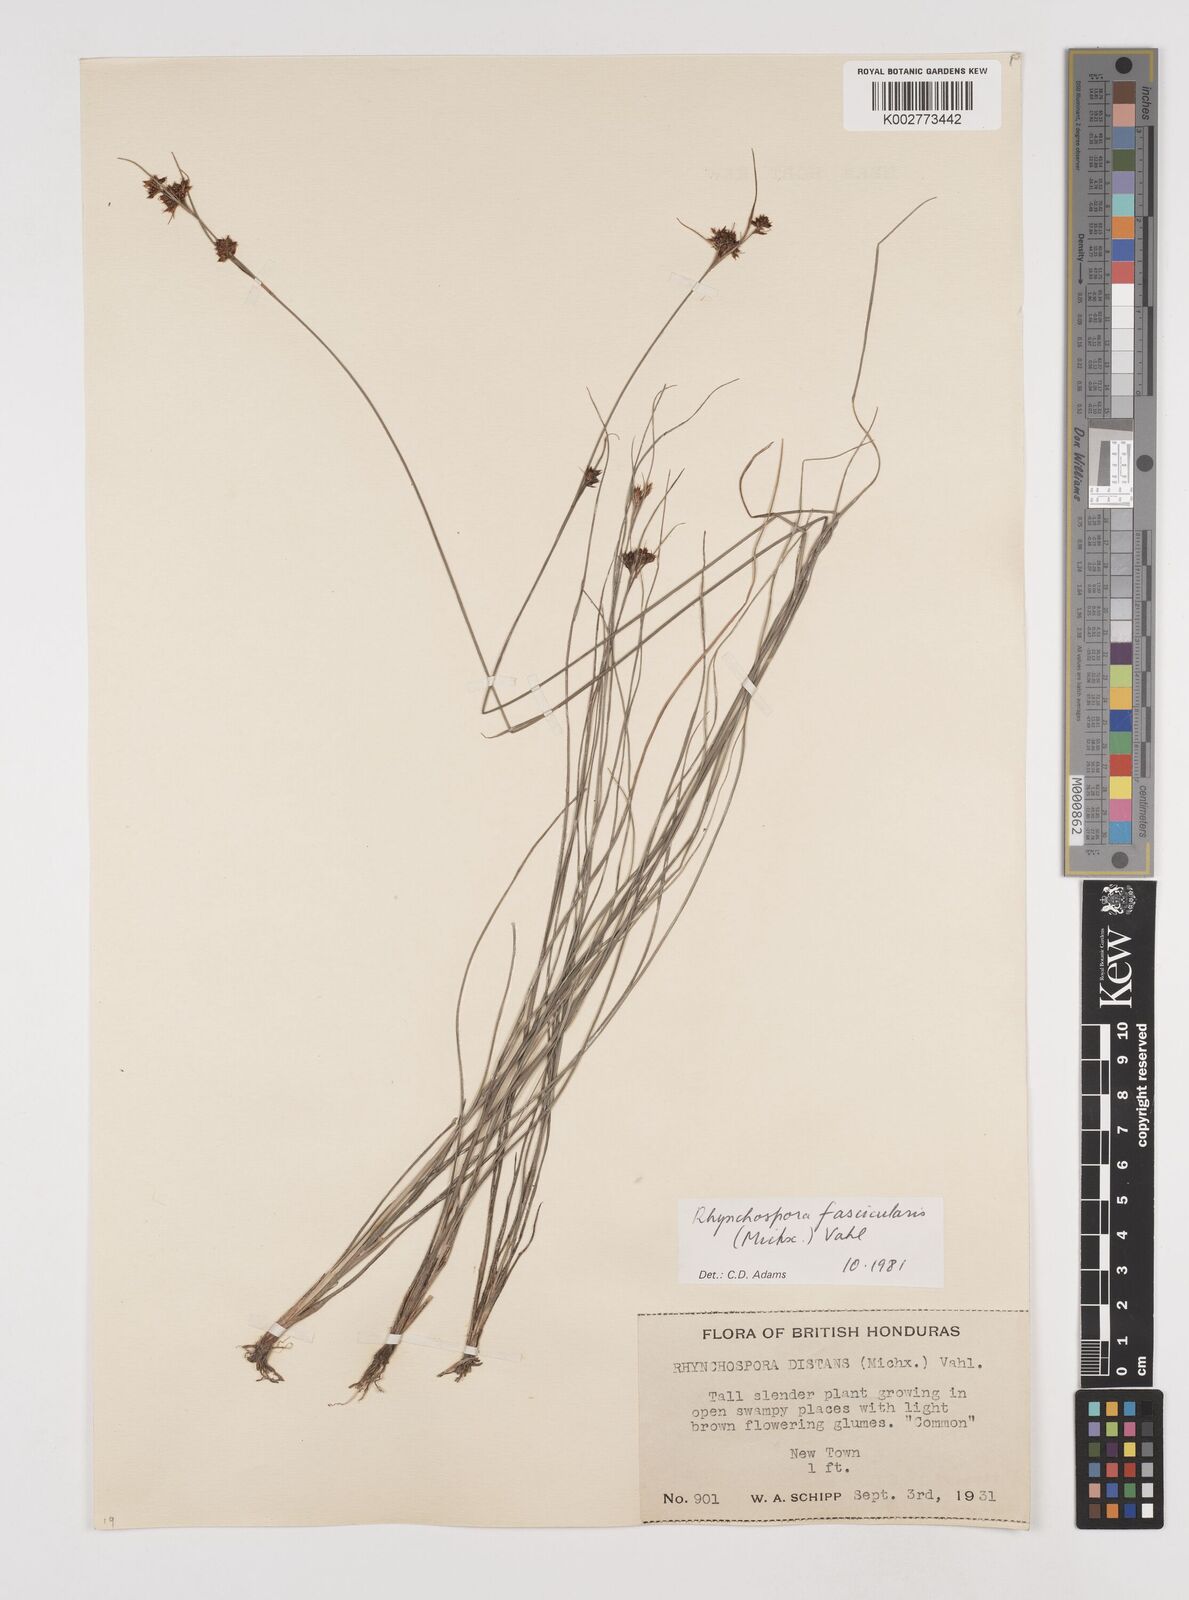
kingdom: Plantae
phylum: Tracheophyta
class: Liliopsida
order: Poales
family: Cyperaceae
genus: Rhynchospora
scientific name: Rhynchospora fascicularis
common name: Fascicled beak sedge
